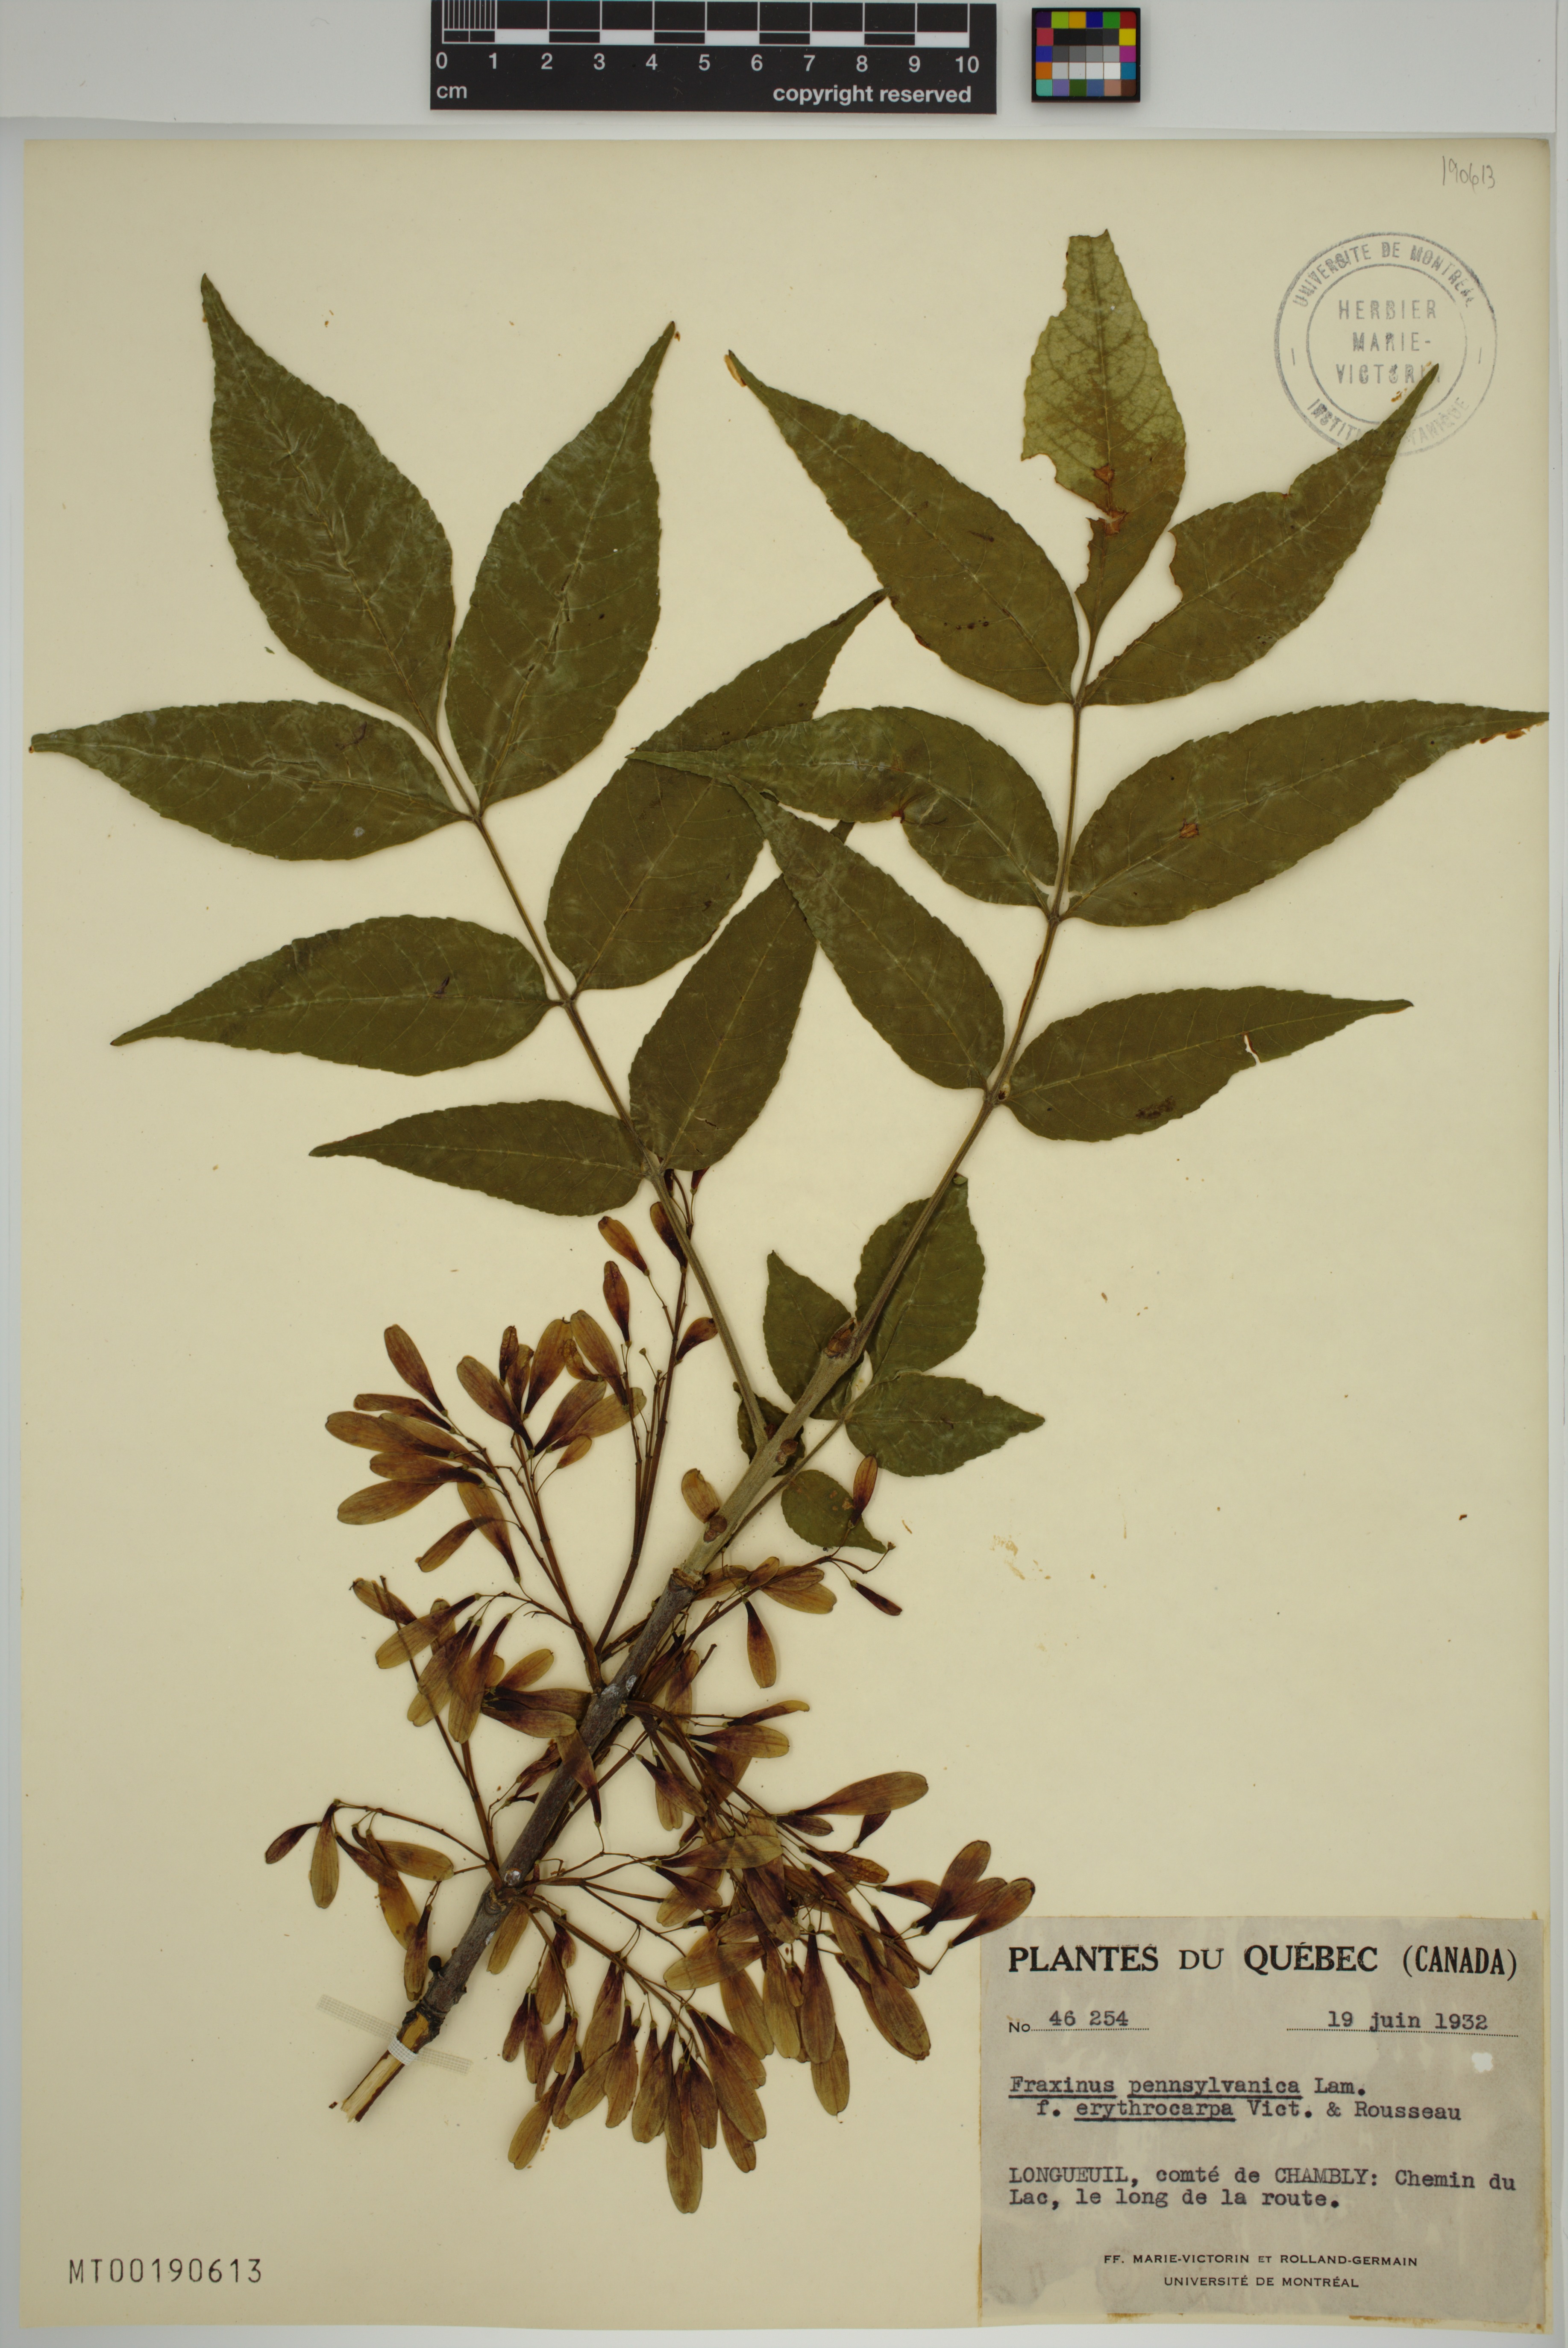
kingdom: Plantae
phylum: Tracheophyta
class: Magnoliopsida
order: Lamiales
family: Oleaceae
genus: Fraxinus
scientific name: Fraxinus pennsylvanica
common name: Green ash
